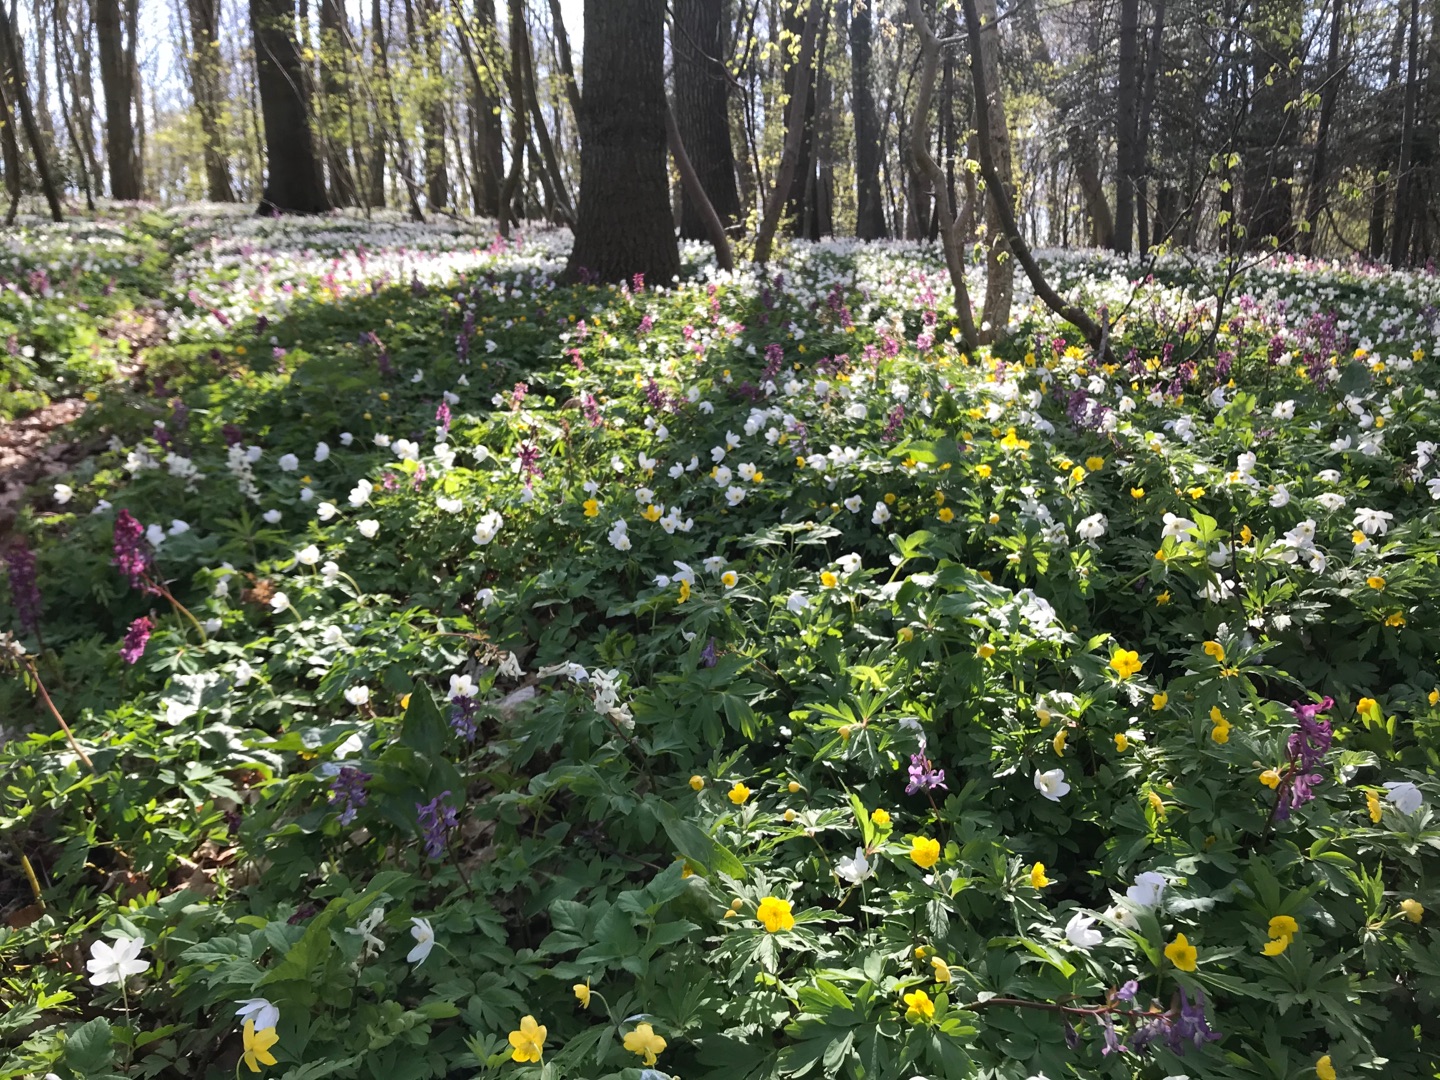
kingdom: Plantae
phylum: Tracheophyta
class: Magnoliopsida
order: Ranunculales
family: Ranunculaceae
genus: Anemone
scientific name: Anemone ranunculoides
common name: Gul anemone
